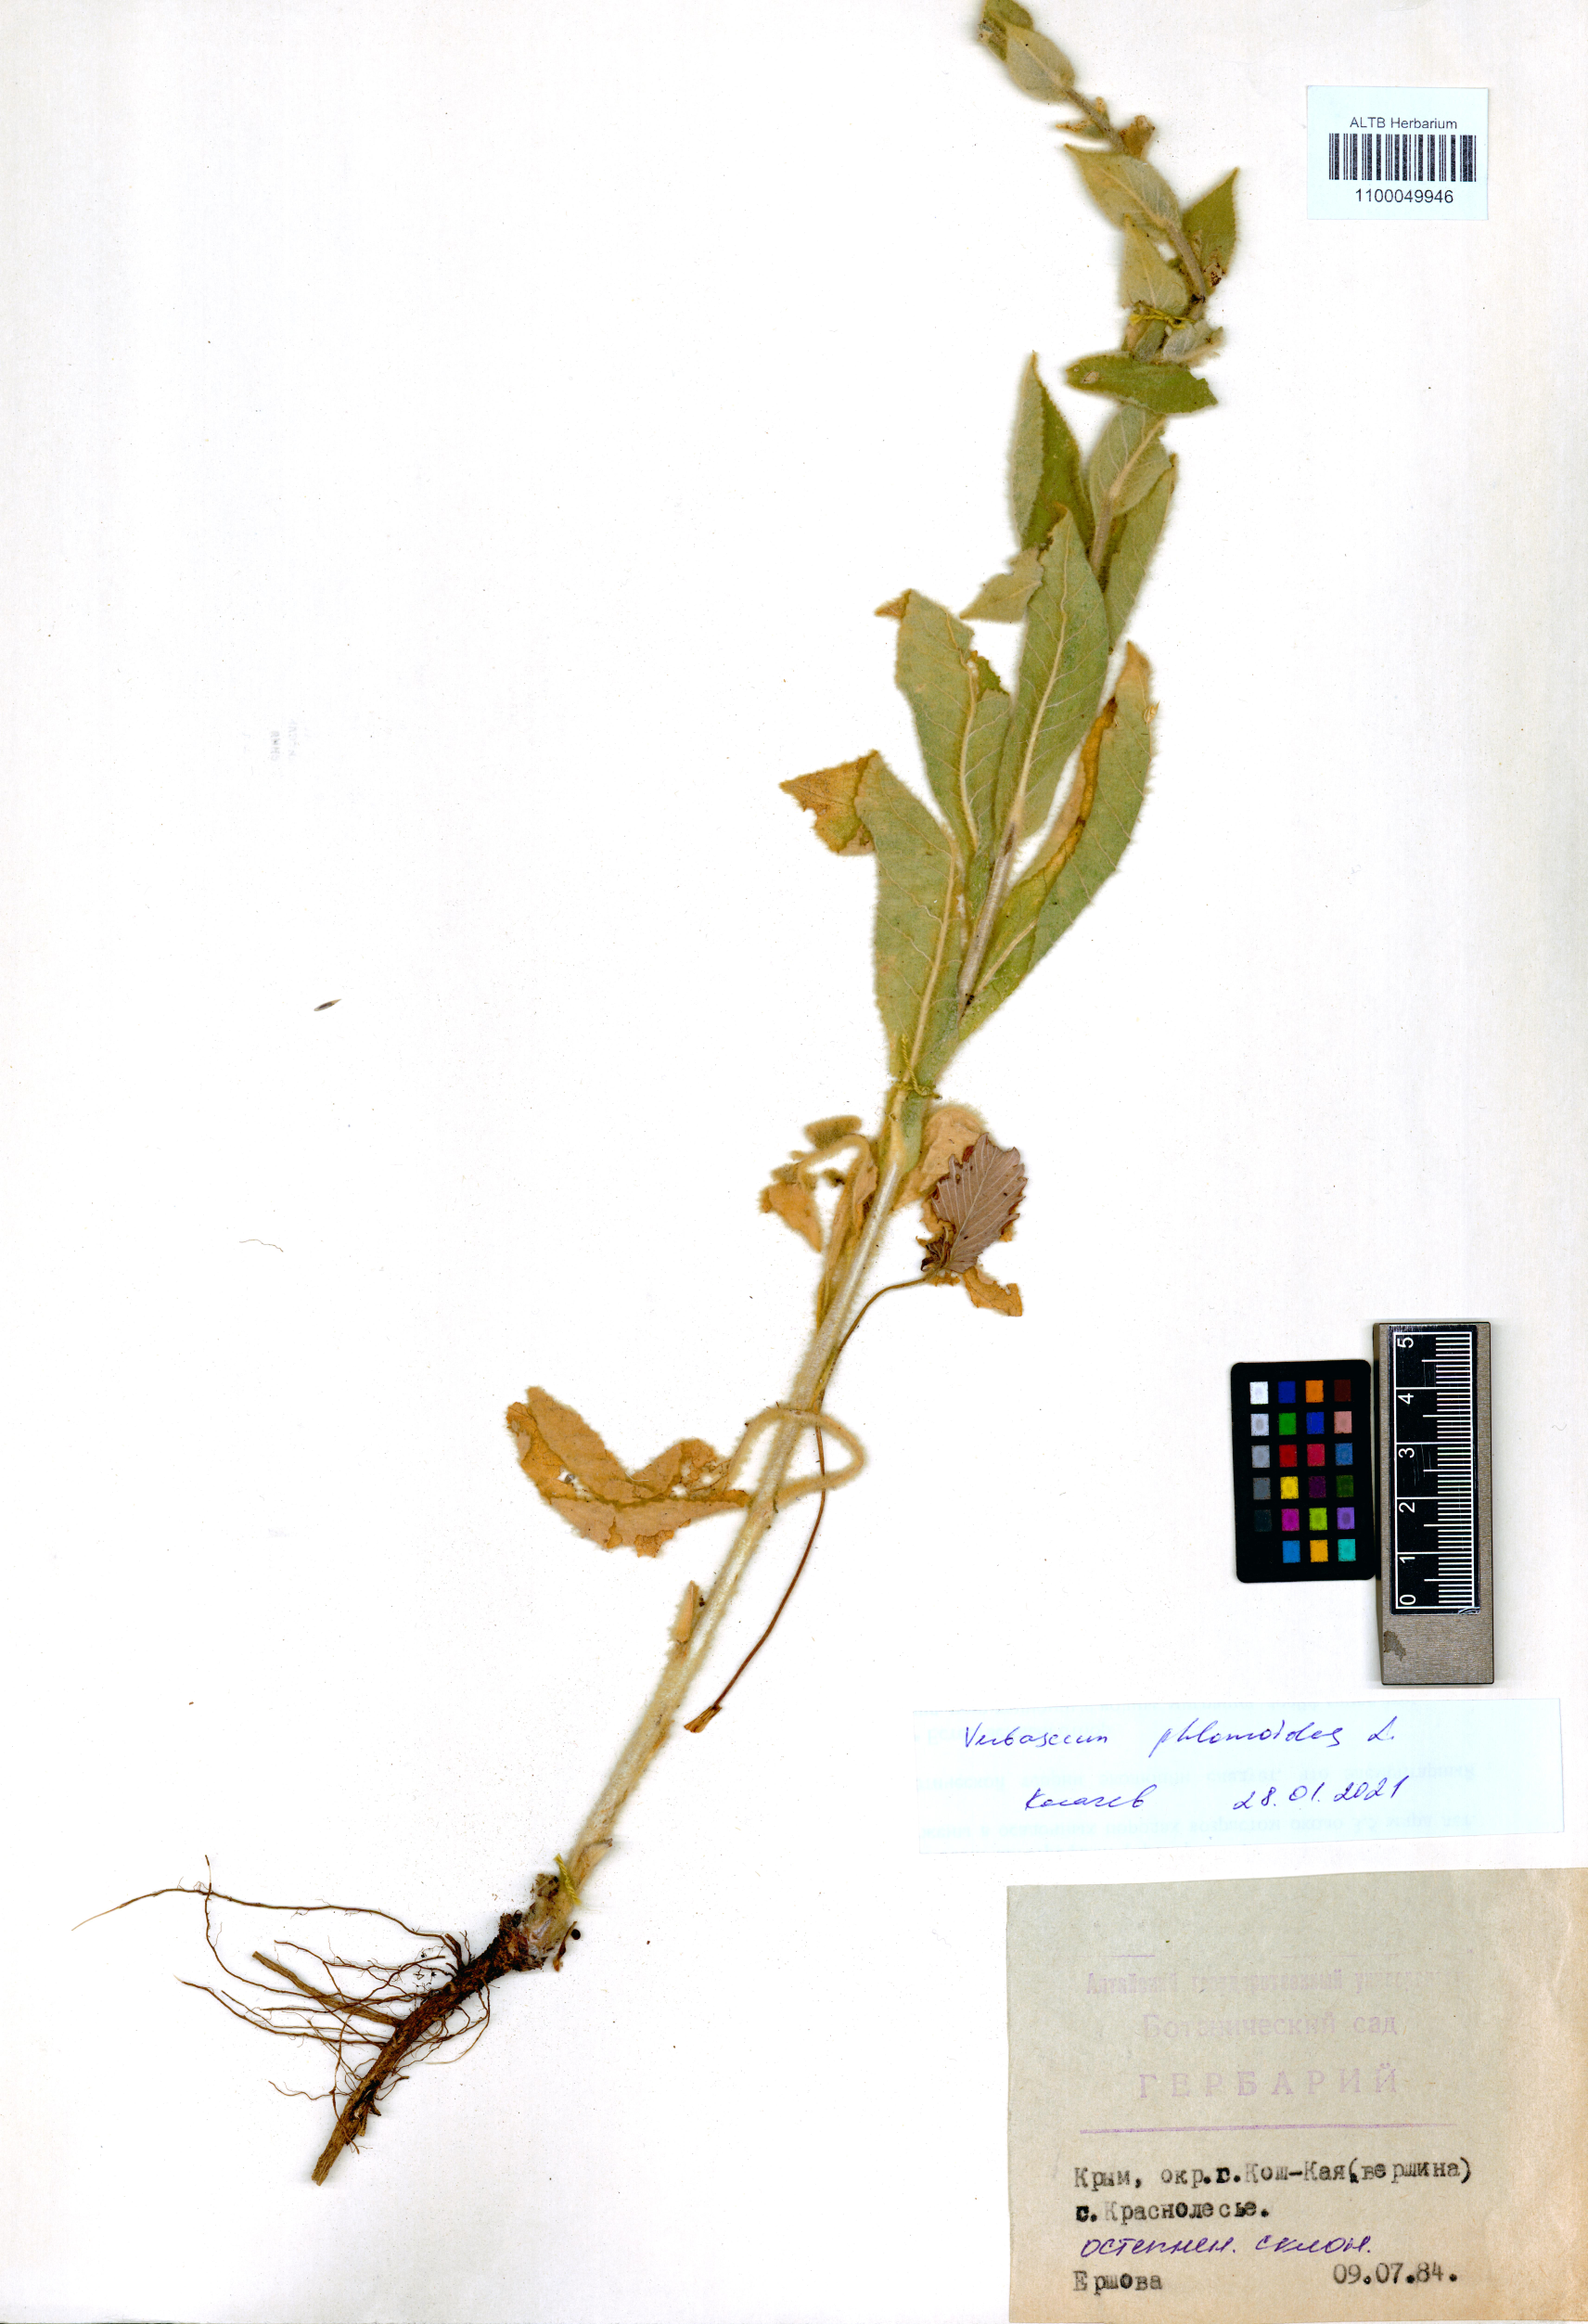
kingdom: Plantae
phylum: Tracheophyta
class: Magnoliopsida
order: Lamiales
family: Scrophulariaceae
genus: Verbascum
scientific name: Verbascum phlomoides
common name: Orange mullein
